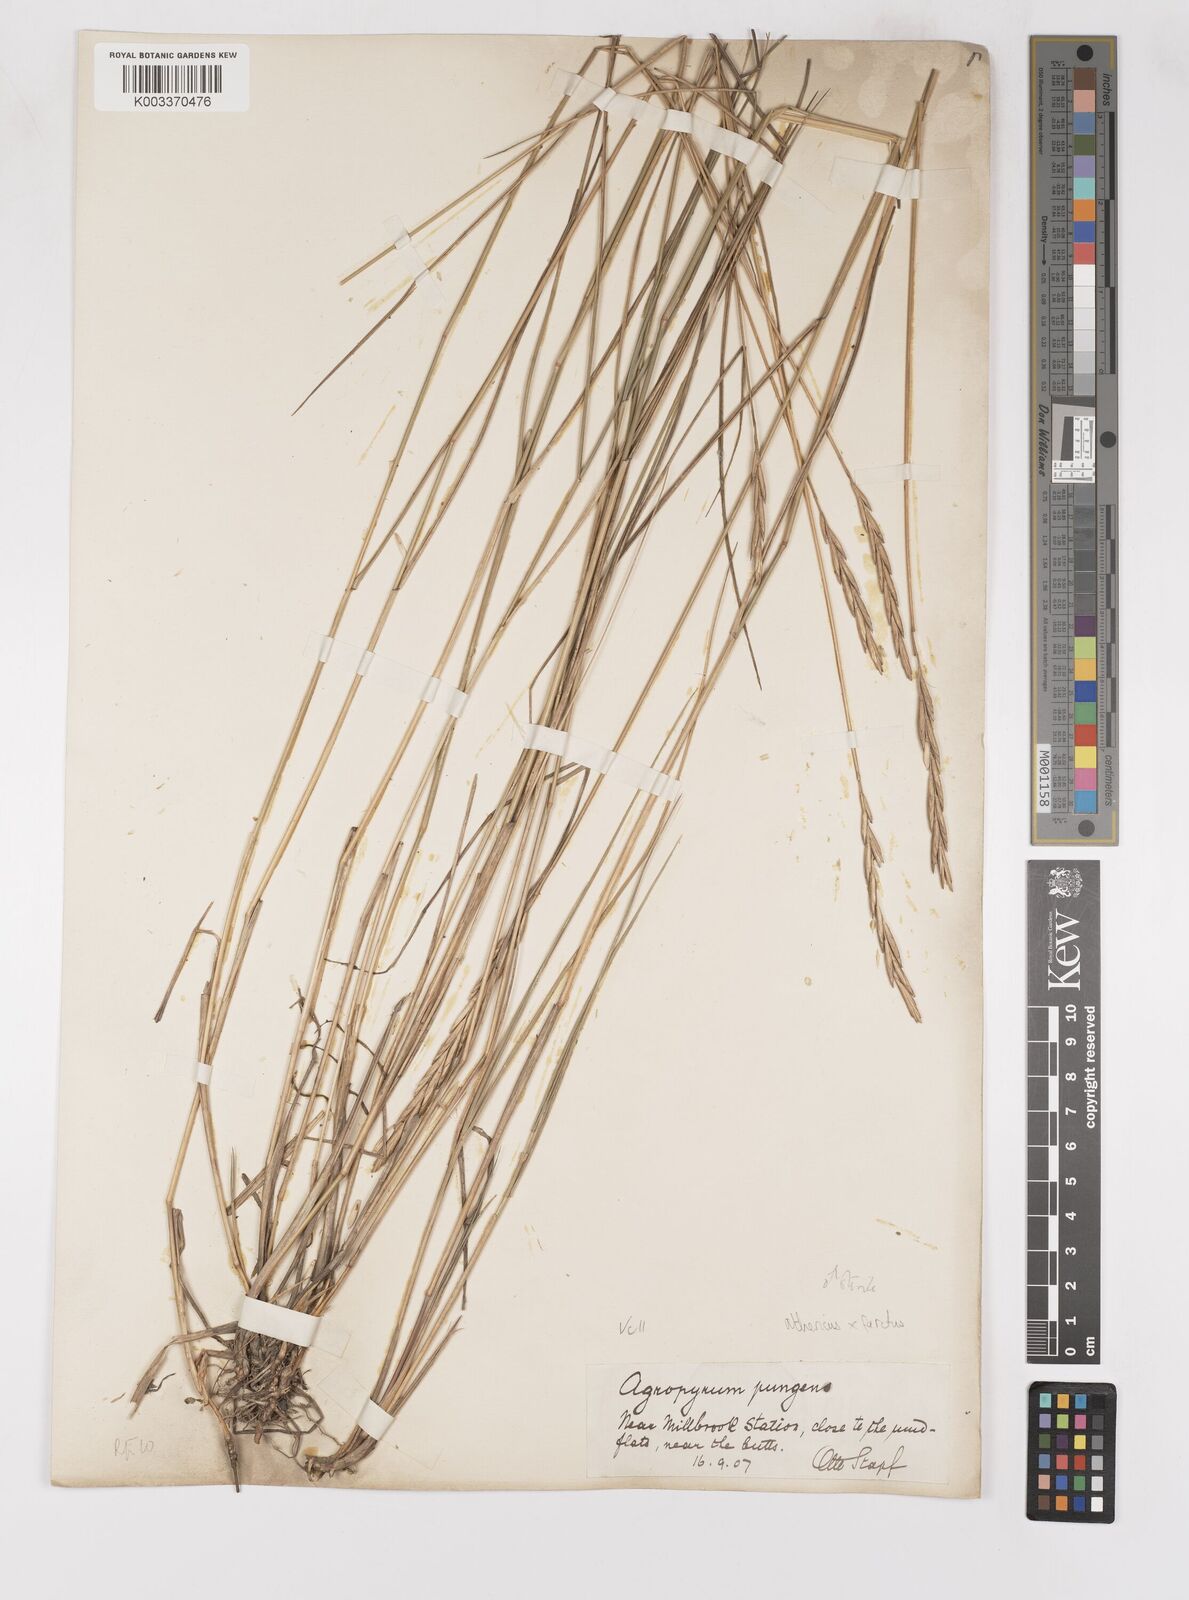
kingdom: Plantae
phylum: Tracheophyta
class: Liliopsida
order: Poales
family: Poaceae
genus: Thinoelymus
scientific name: Thinoelymus obtusiusculus
